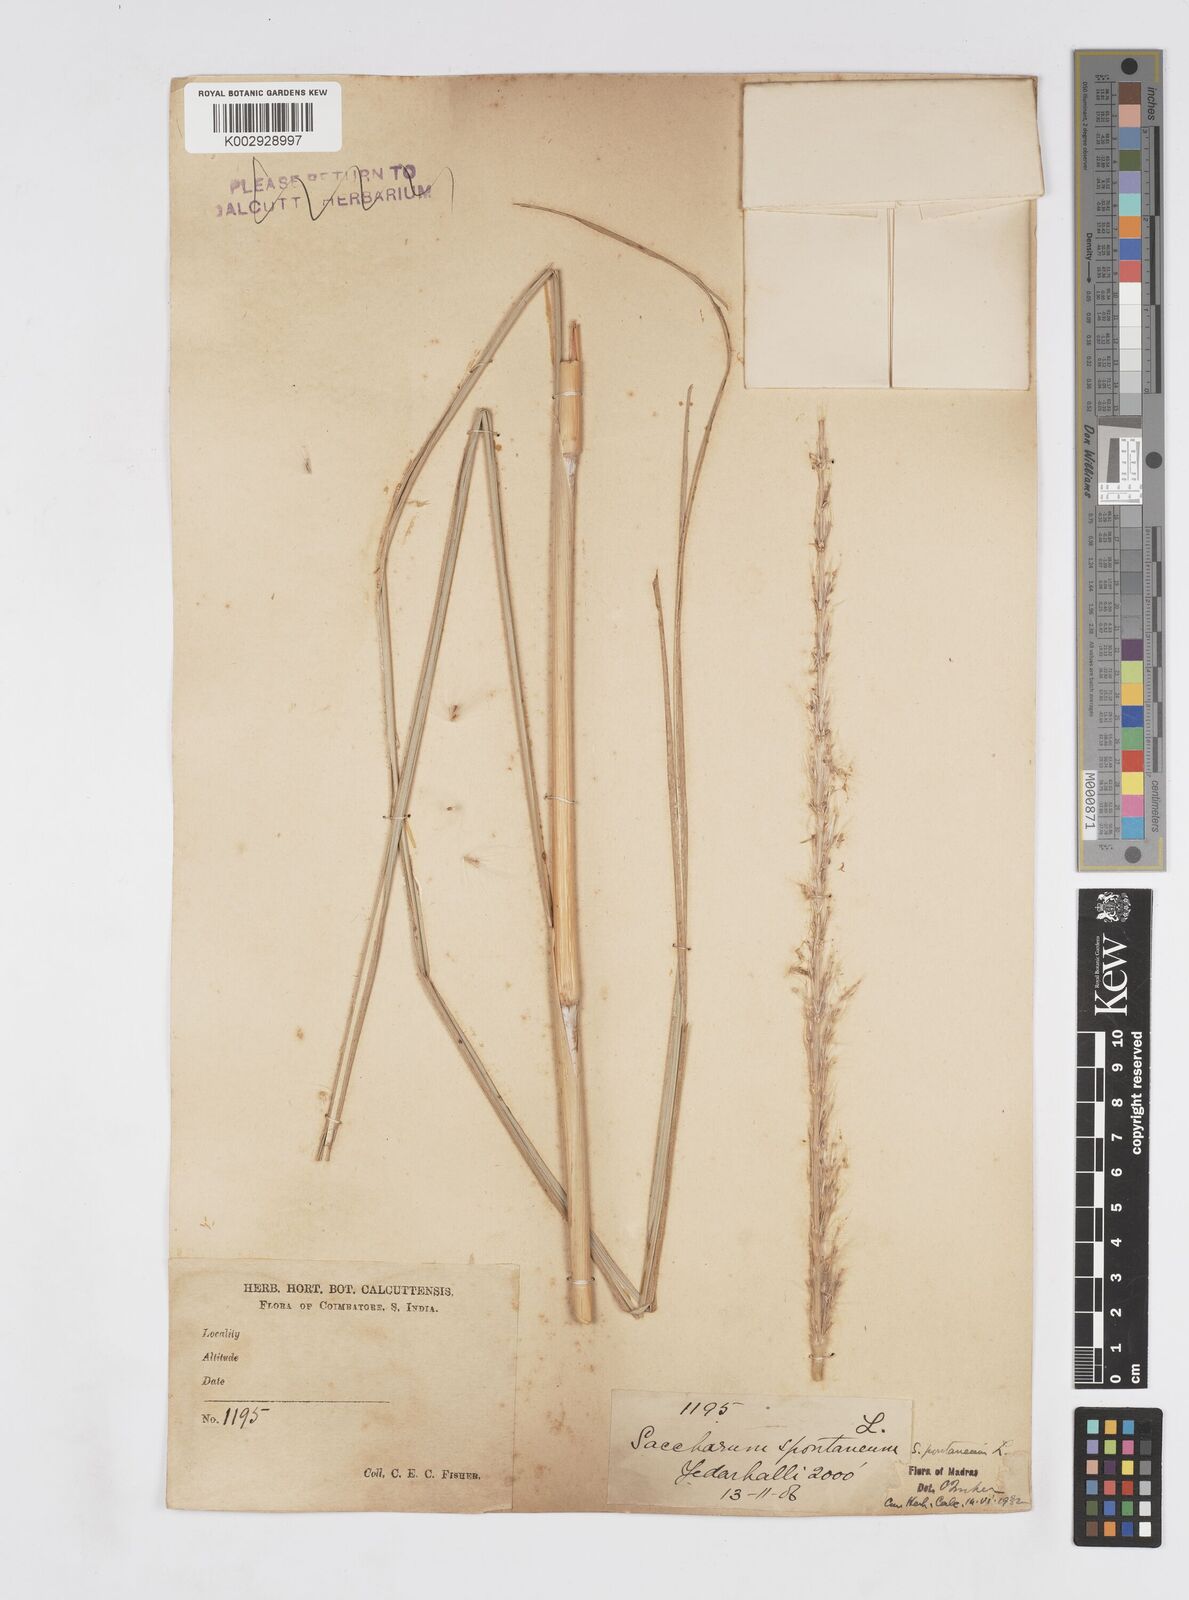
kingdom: Plantae
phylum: Tracheophyta
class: Liliopsida
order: Poales
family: Poaceae
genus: Saccharum
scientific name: Saccharum spontaneum
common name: Wild sugarcane
